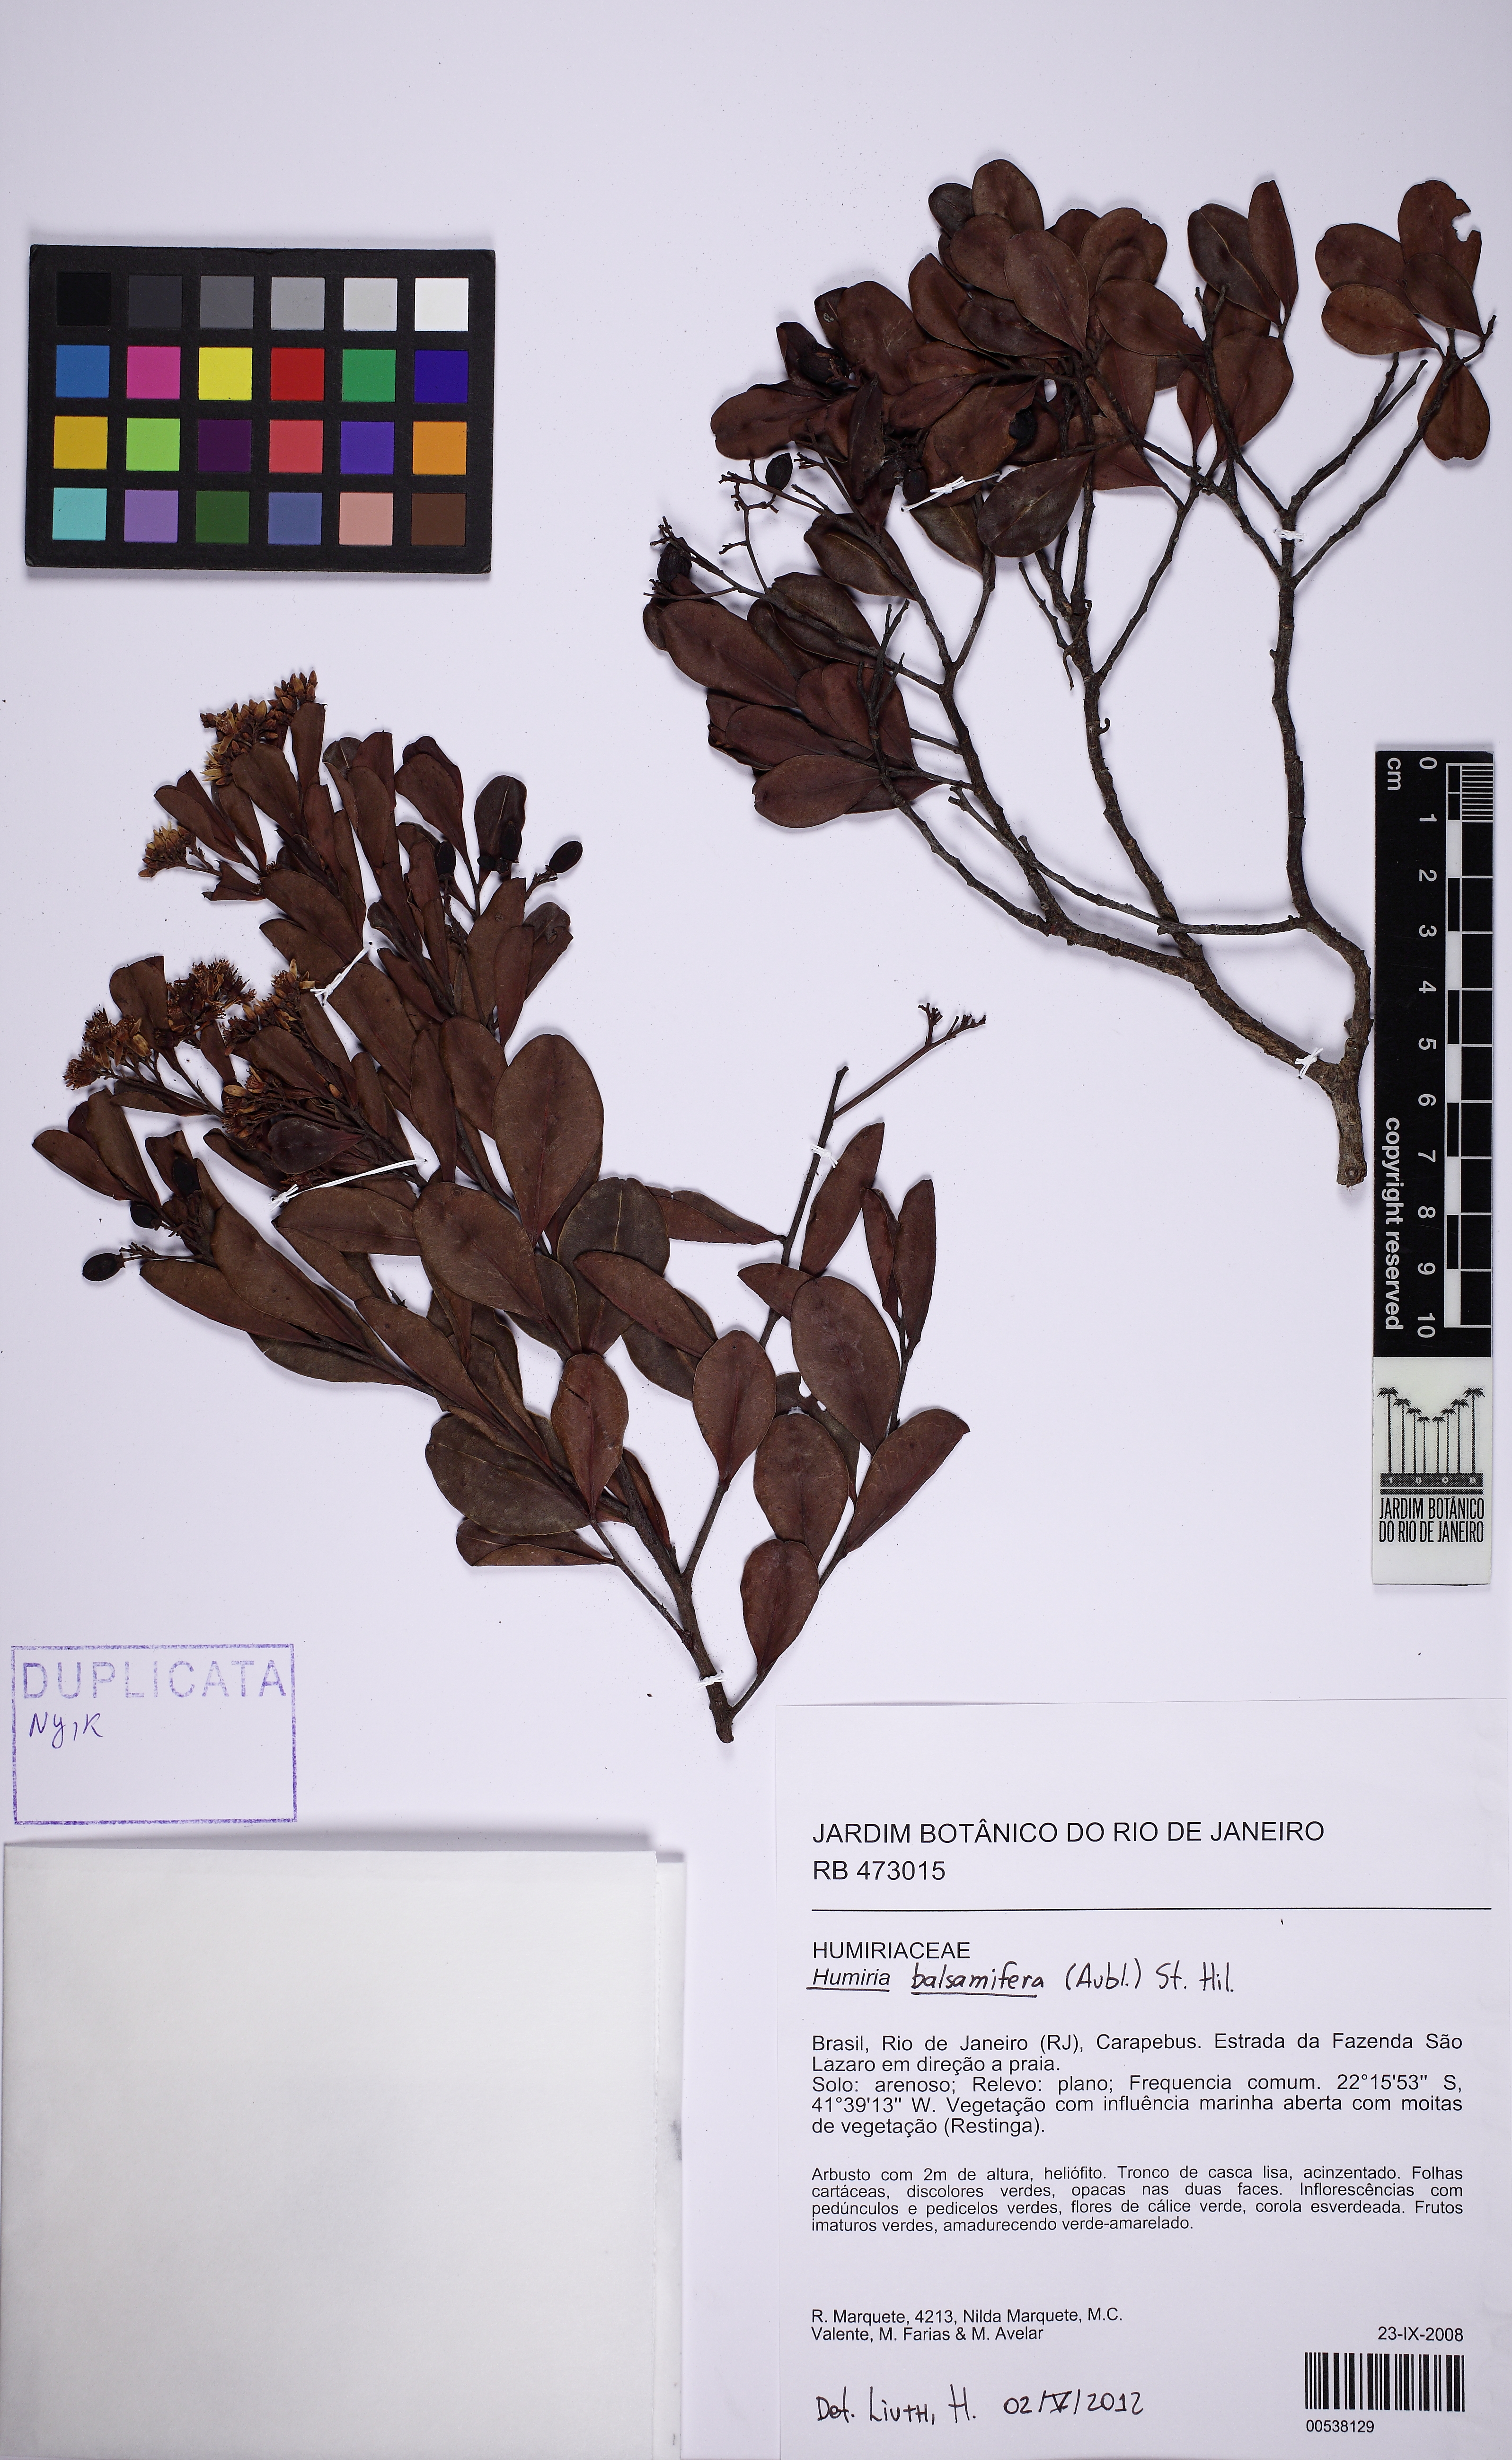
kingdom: Plantae
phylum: Tracheophyta
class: Magnoliopsida
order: Malpighiales
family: Humiriaceae
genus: Humiria
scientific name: Humiria balsamifera
